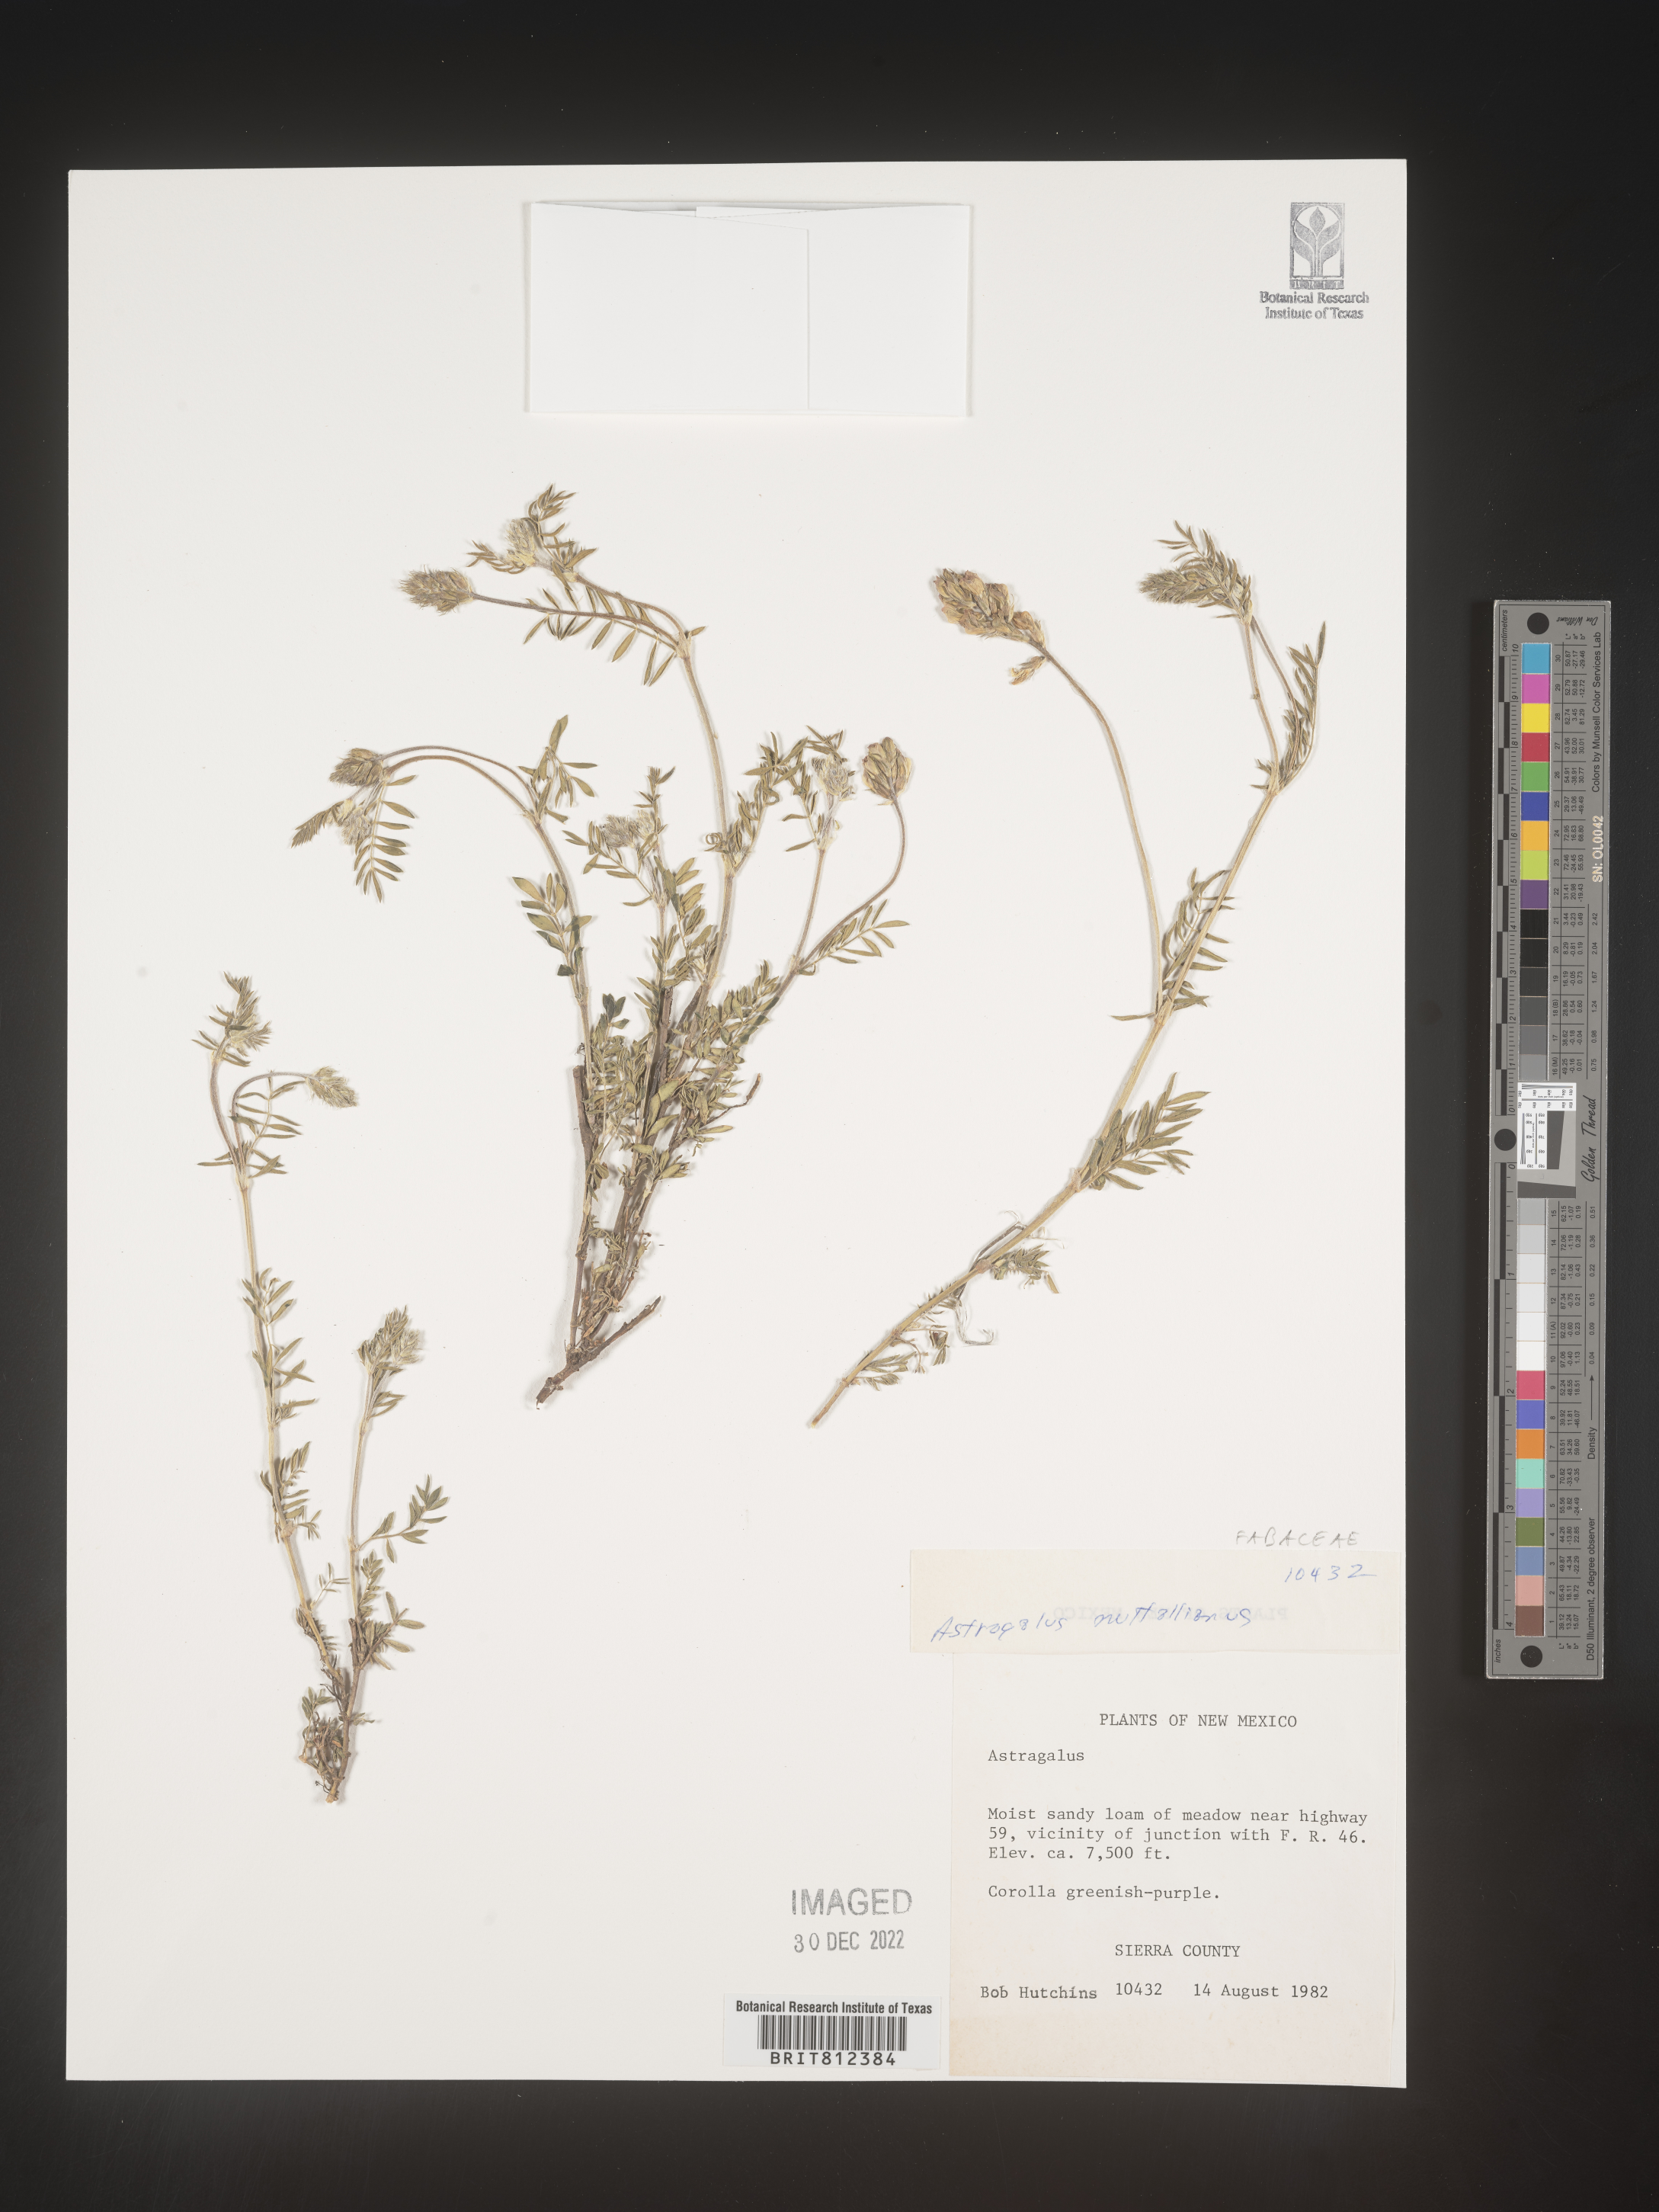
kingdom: Plantae
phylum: Tracheophyta
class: Magnoliopsida
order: Fabales
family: Fabaceae
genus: Astragalus
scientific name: Astragalus nuttallianus
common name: Smallflowered milkvetch
